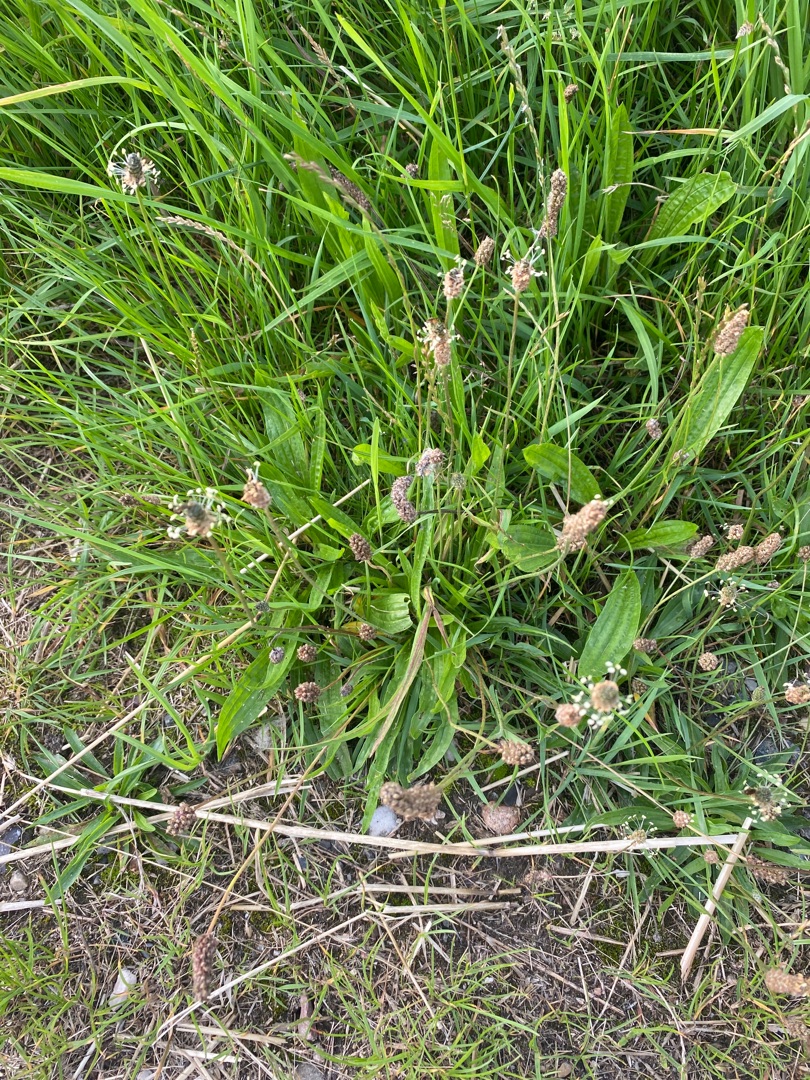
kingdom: Plantae
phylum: Tracheophyta
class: Magnoliopsida
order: Lamiales
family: Plantaginaceae
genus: Plantago
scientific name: Plantago lanceolata
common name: Lancet-vejbred
